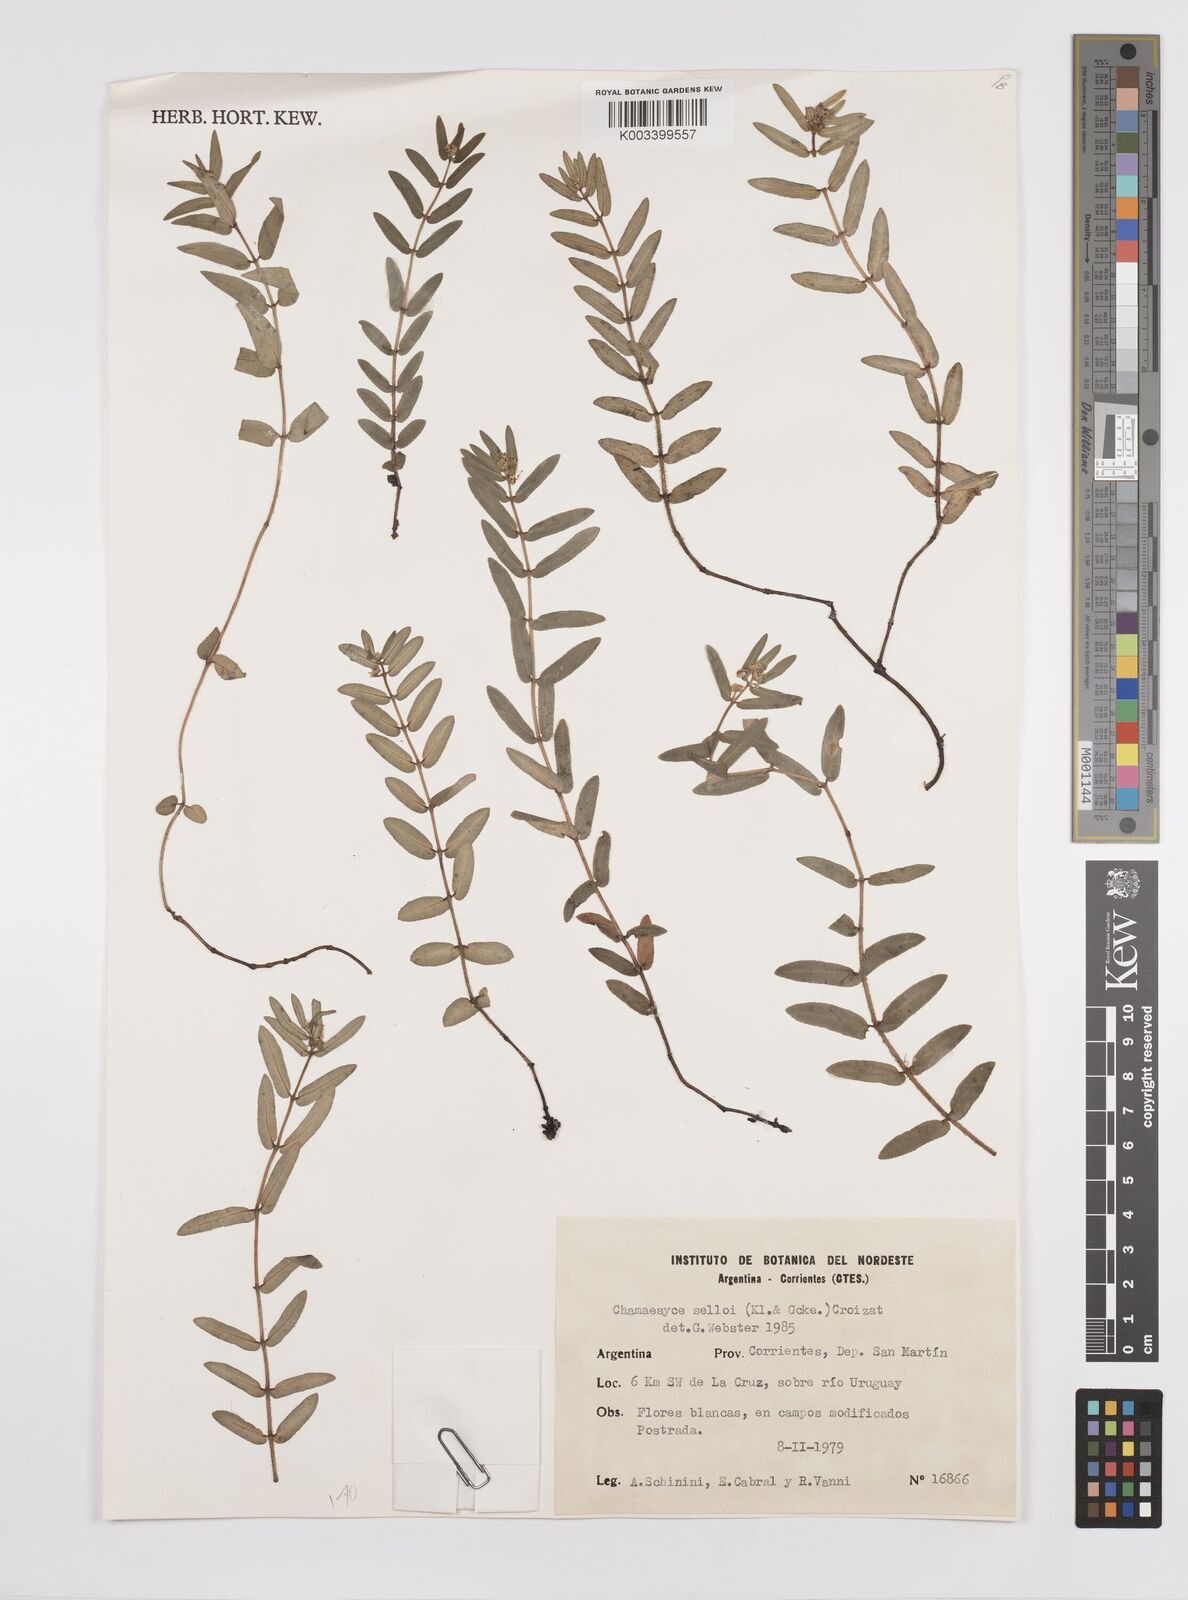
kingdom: Plantae
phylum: Tracheophyta
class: Magnoliopsida
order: Malpighiales
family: Euphorbiaceae
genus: Euphorbia
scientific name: Euphorbia selloi
